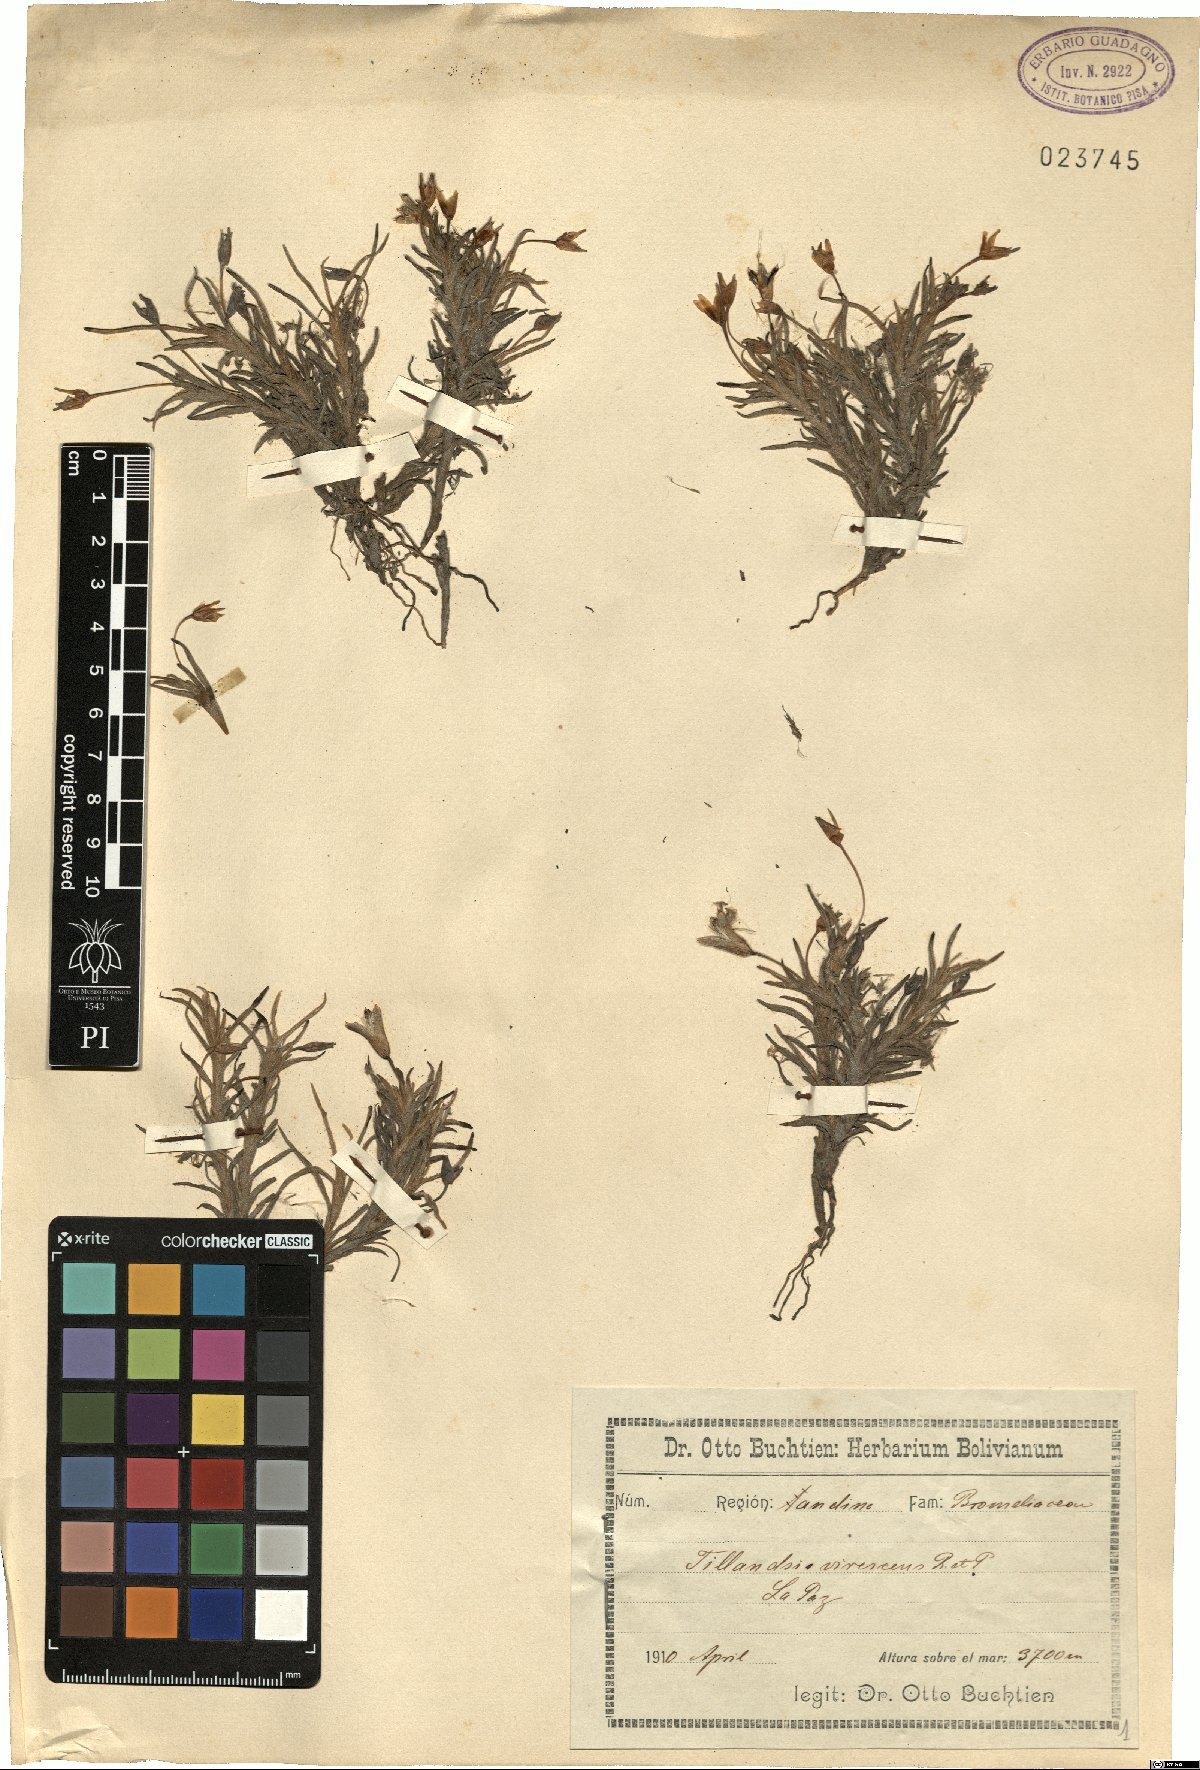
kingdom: Plantae
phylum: Tracheophyta
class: Liliopsida
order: Poales
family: Bromeliaceae
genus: Tillandsia
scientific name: Tillandsia virescens
